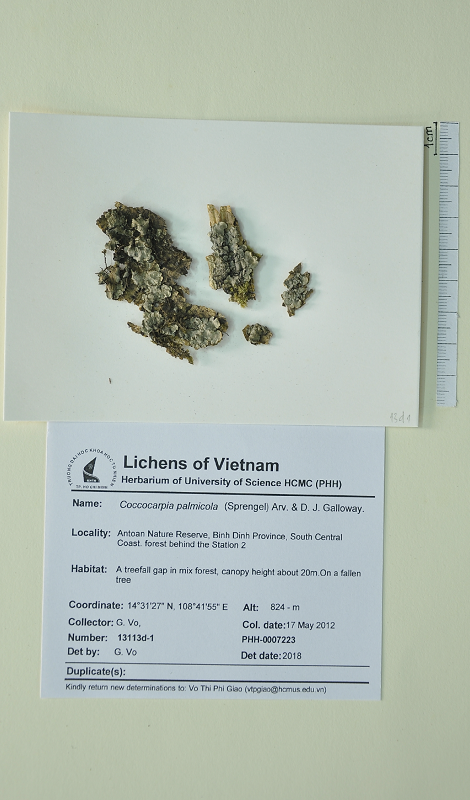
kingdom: Fungi
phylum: Ascomycota
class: Lecanoromycetes
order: Peltigerales
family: Coccocarpiaceae
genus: Coccocarpia
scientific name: Coccocarpia palmicola
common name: Salted shell lichen
